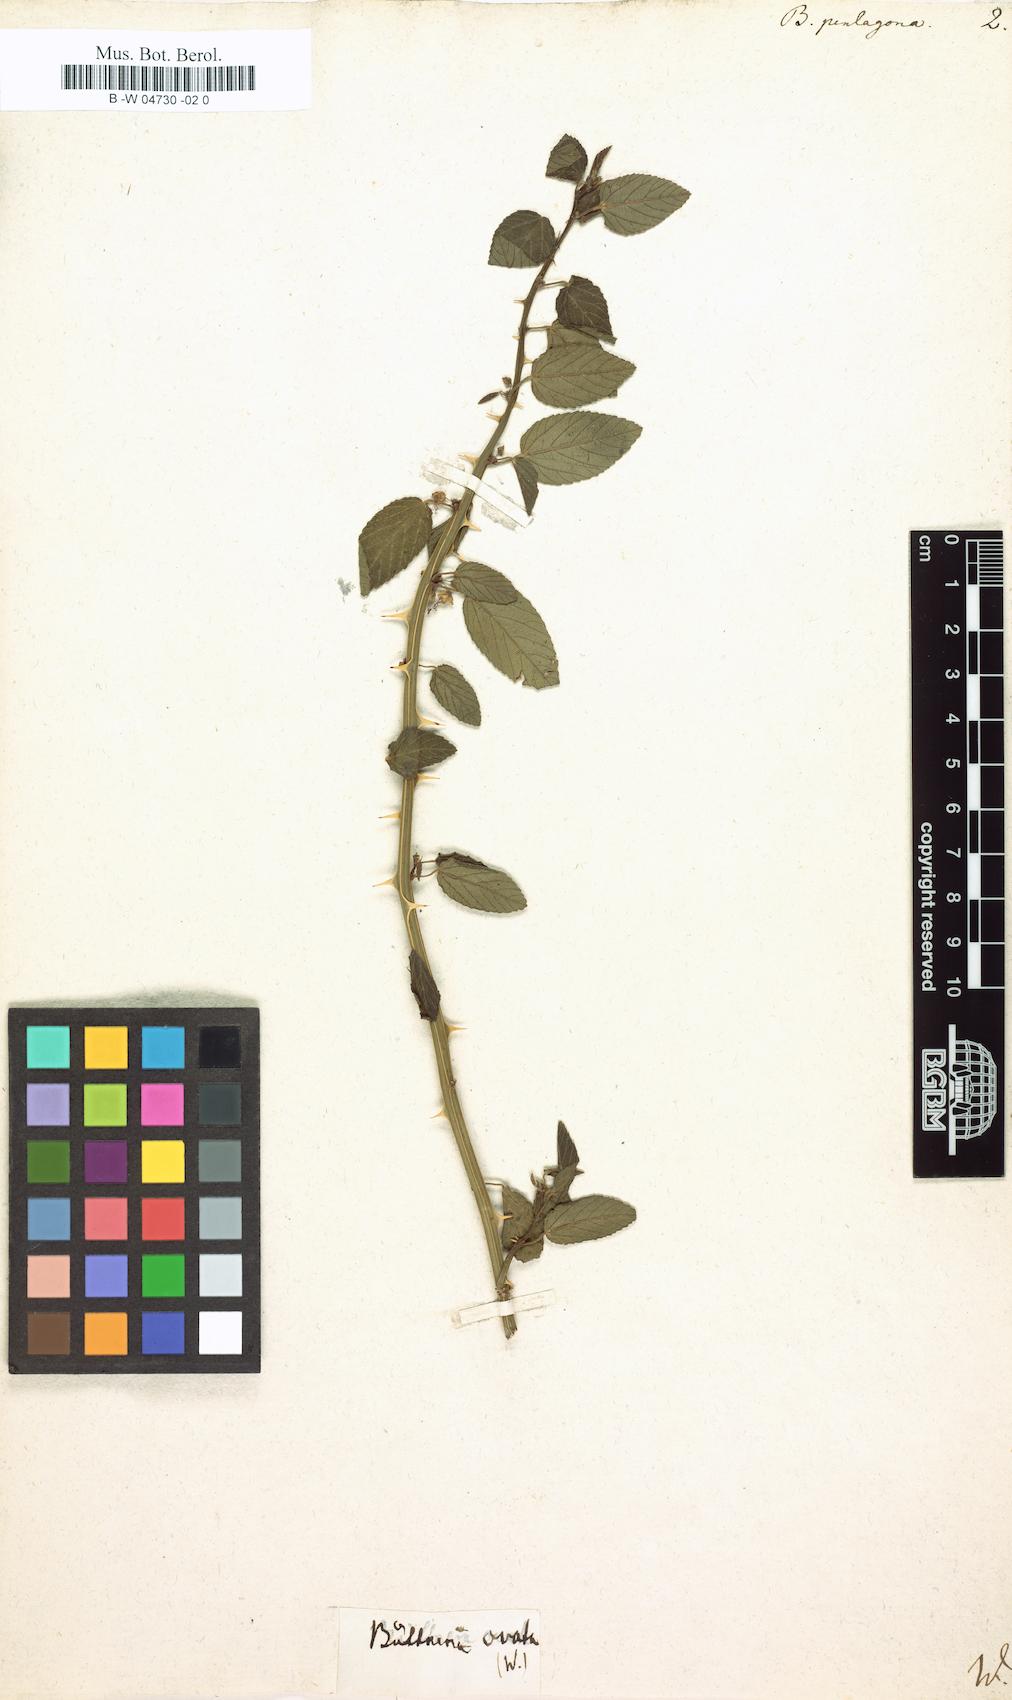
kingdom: Plantae
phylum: Tracheophyta
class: Magnoliopsida
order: Malvales
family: Malvaceae
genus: Byttneria
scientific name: Byttneria pentagona
